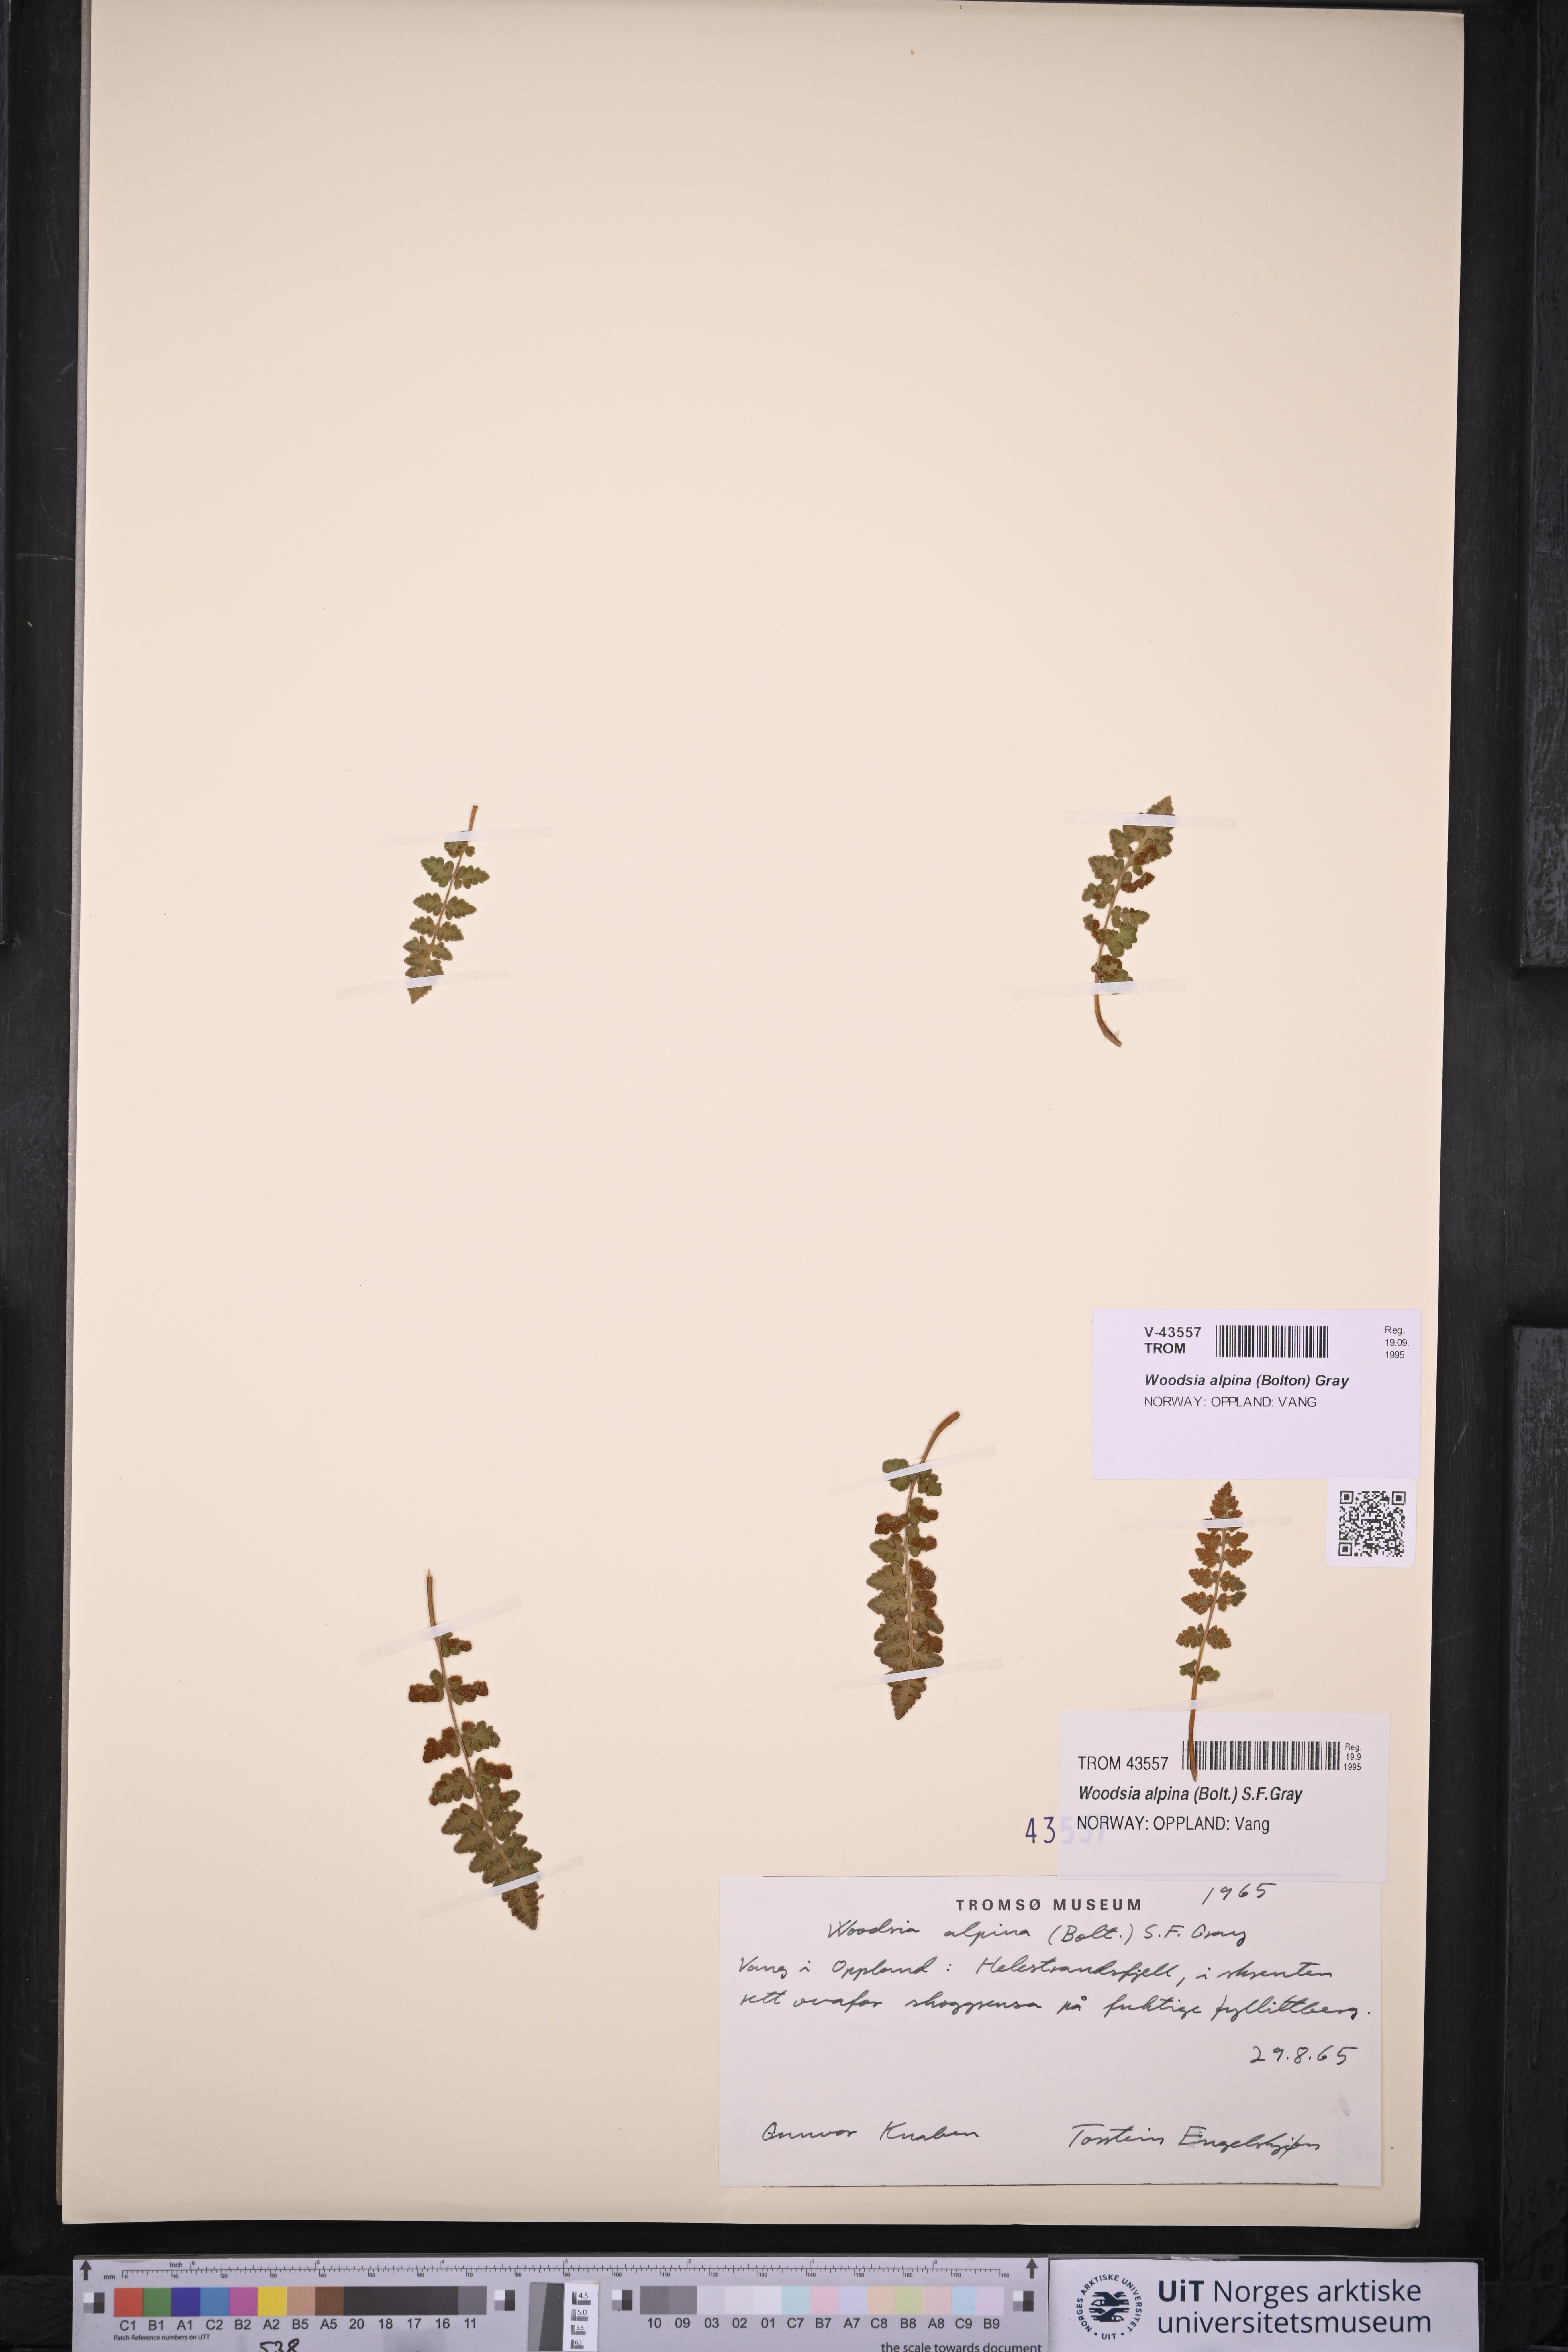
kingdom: Plantae
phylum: Tracheophyta
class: Polypodiopsida
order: Polypodiales
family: Woodsiaceae
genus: Woodsia
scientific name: Woodsia alpina
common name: Alpine woodsia
